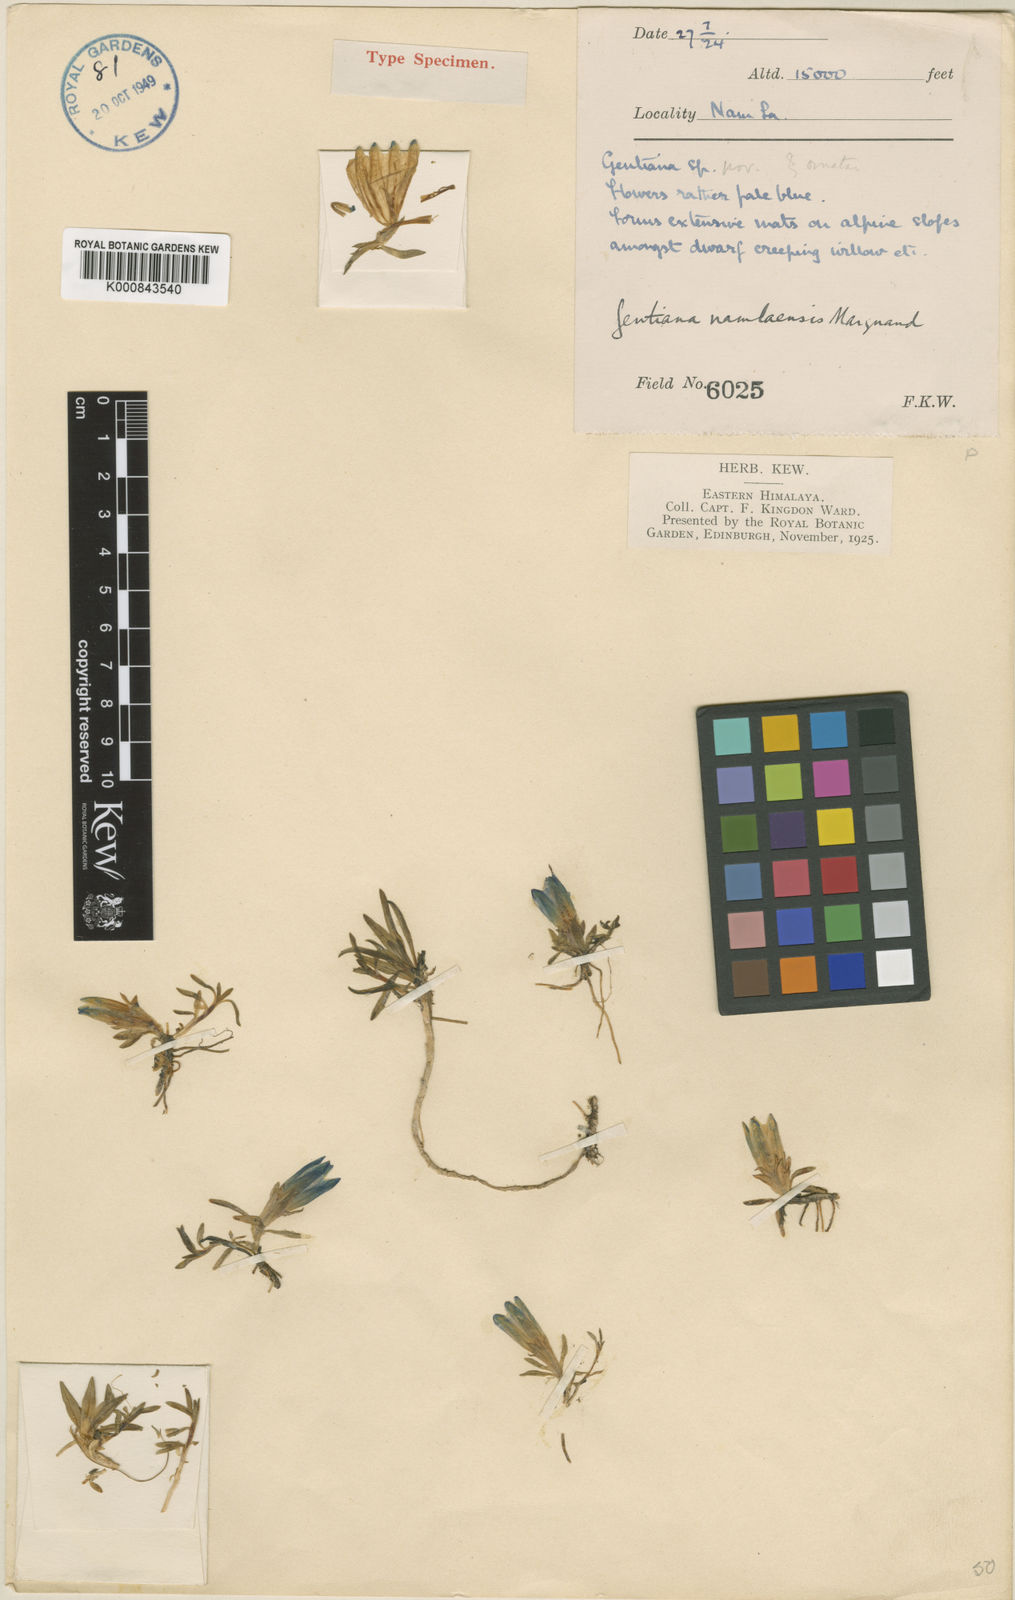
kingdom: Plantae
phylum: Tracheophyta
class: Magnoliopsida
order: Gentianales
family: Gentianaceae
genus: Gentiana
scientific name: Gentiana namlaensis
